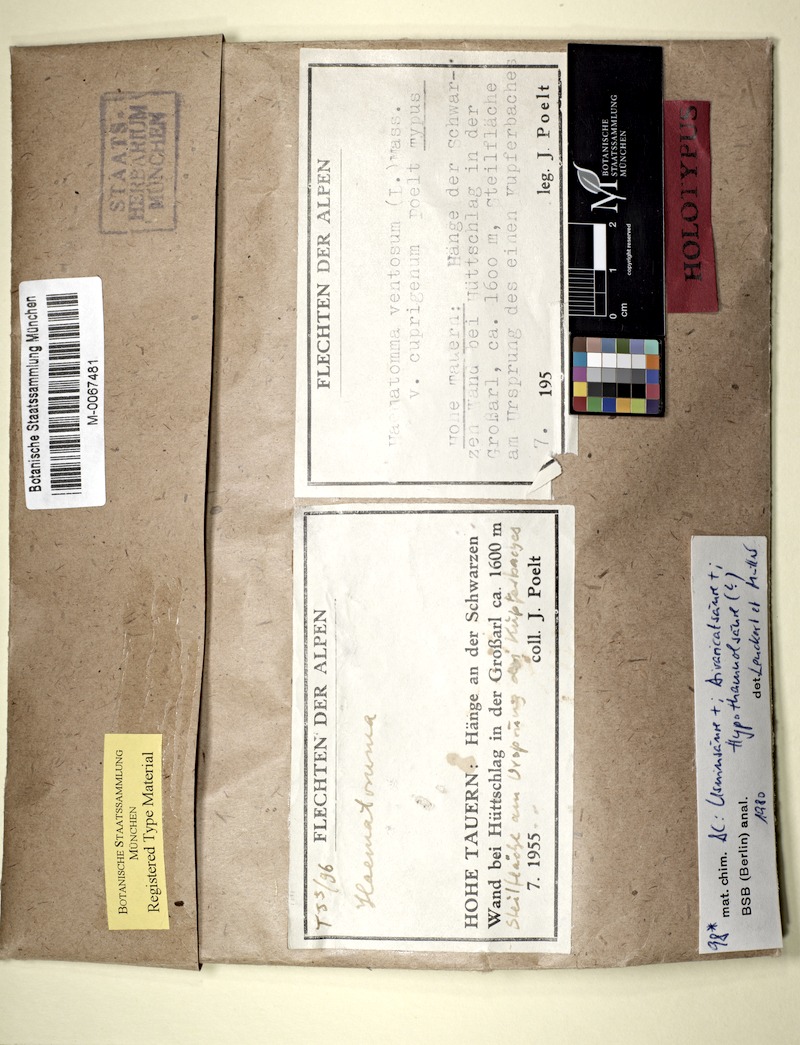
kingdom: Fungi
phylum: Ascomycota
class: Lecanoromycetes
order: Umbilicariales
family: Ophioparmaceae
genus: Ophioparma
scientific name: Ophioparma ventosa
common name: Blood-spot
